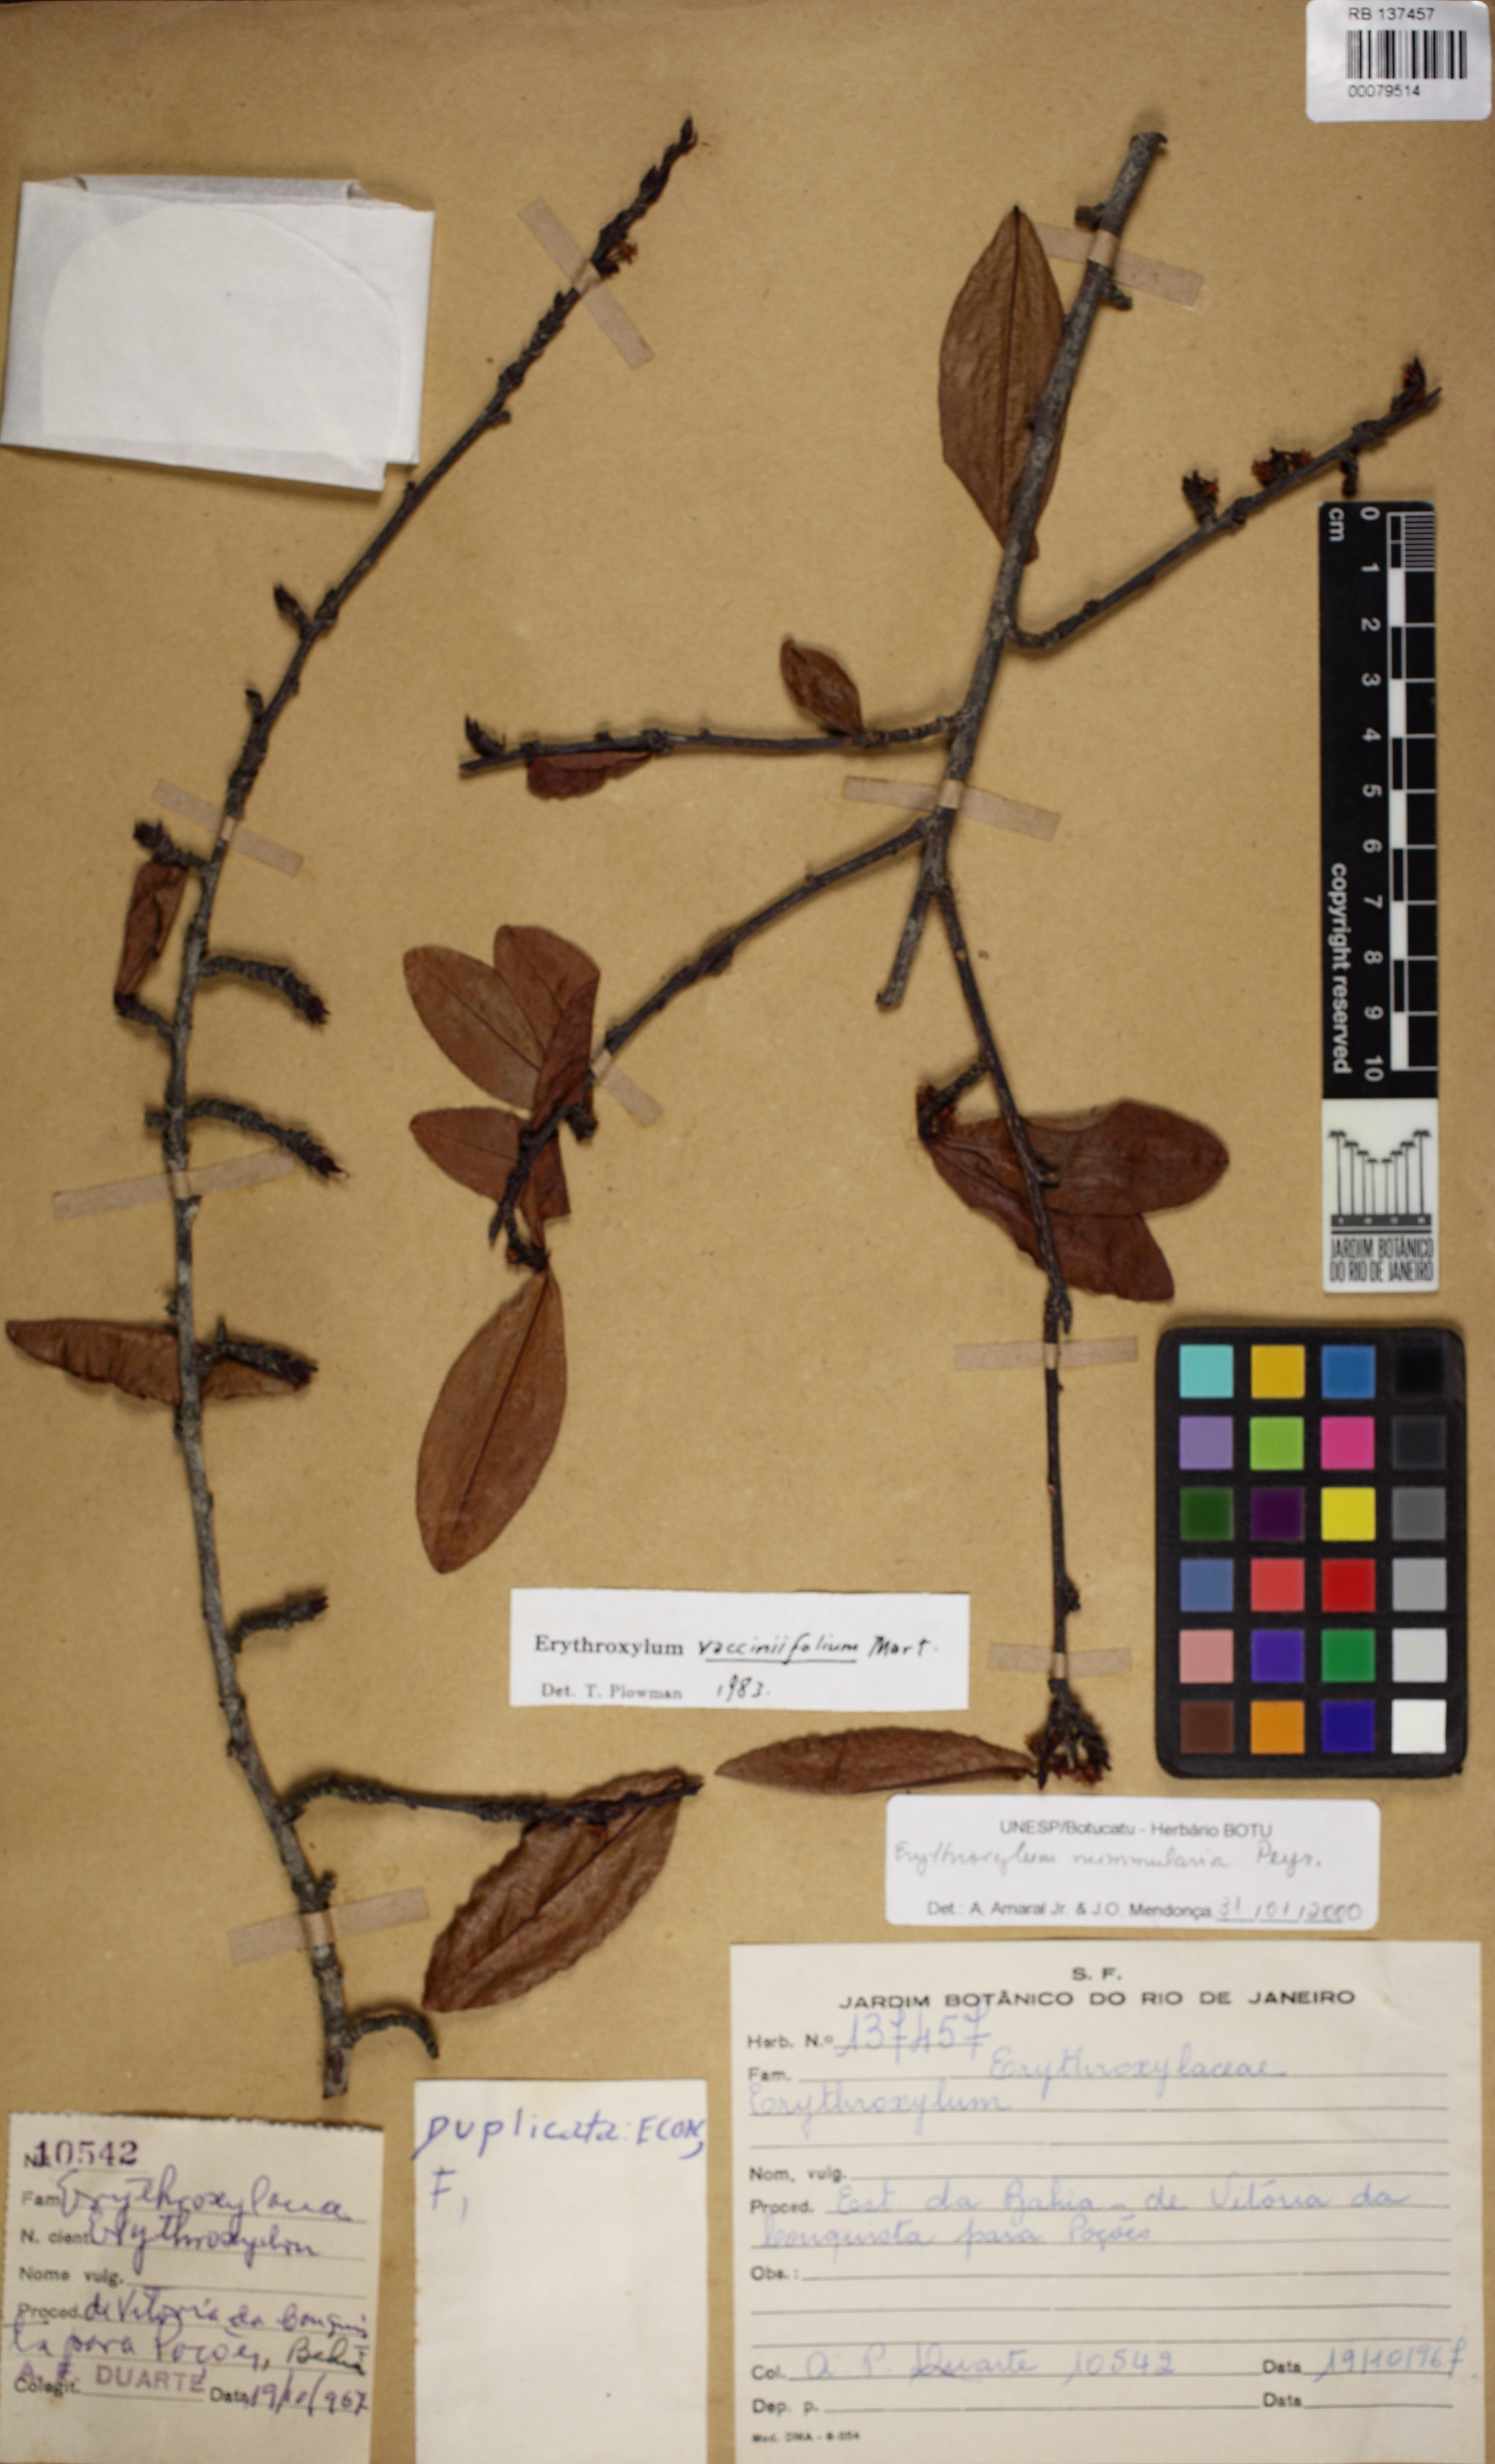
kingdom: Plantae
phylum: Tracheophyta
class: Magnoliopsida
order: Malpighiales
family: Erythroxylaceae
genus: Erythroxylum
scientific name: Erythroxylum nummularia
